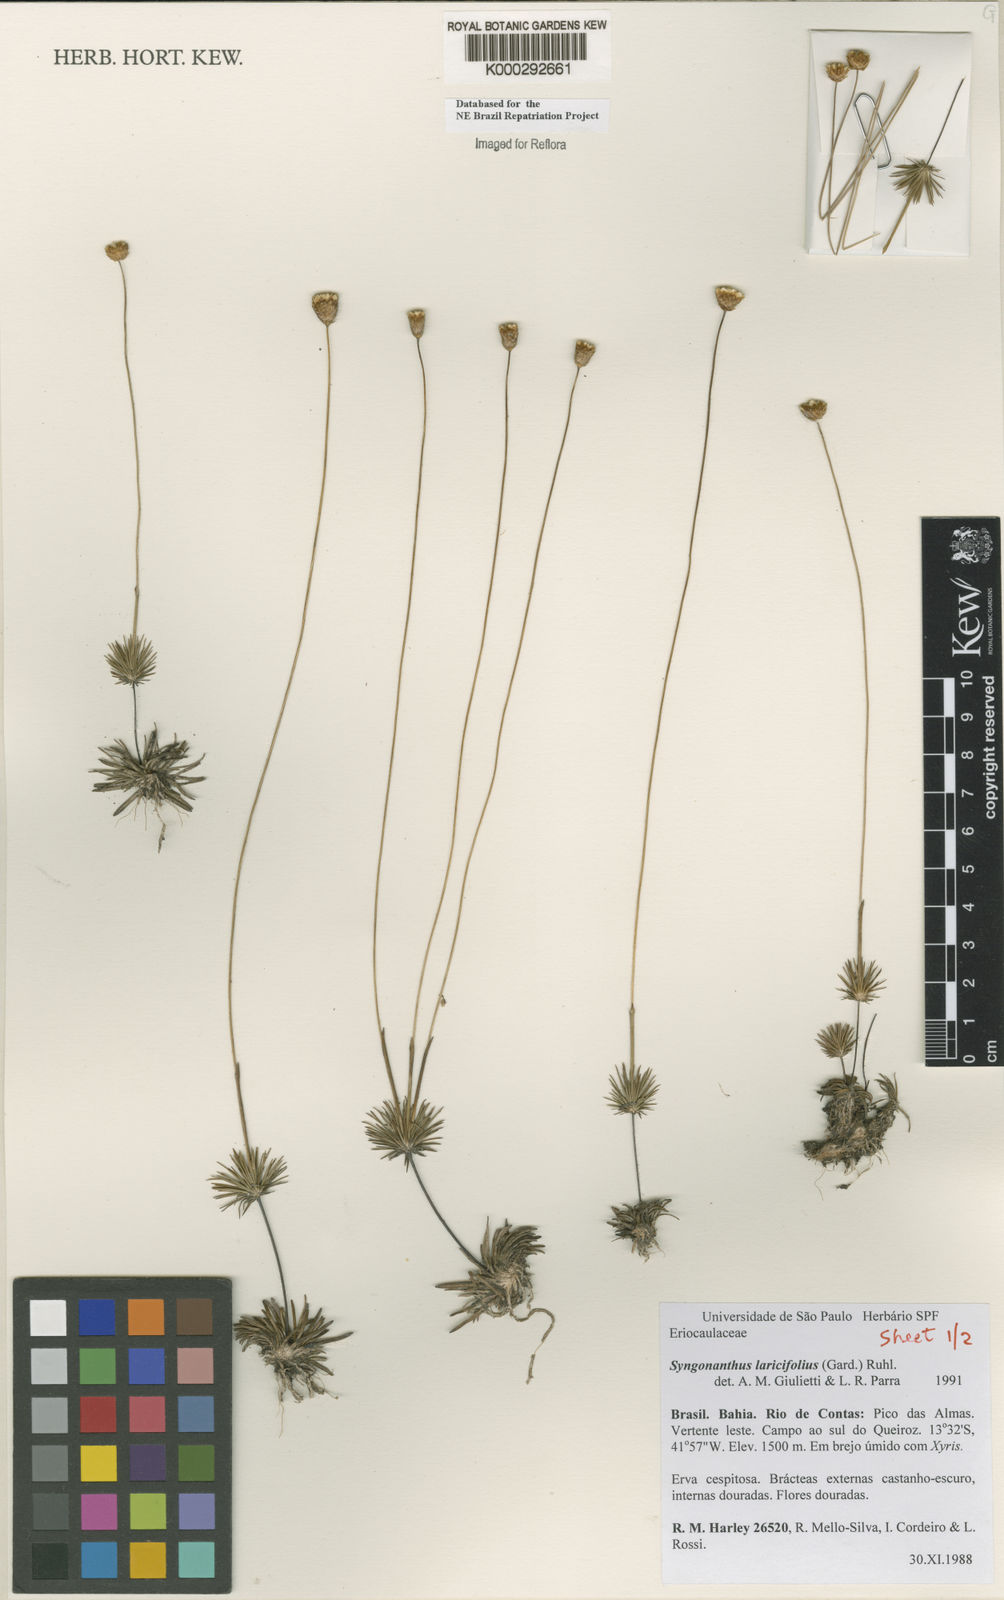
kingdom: Plantae
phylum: Tracheophyta
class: Liliopsida
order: Poales
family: Eriocaulaceae
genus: Syngonanthus
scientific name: Syngonanthus laricifolius
